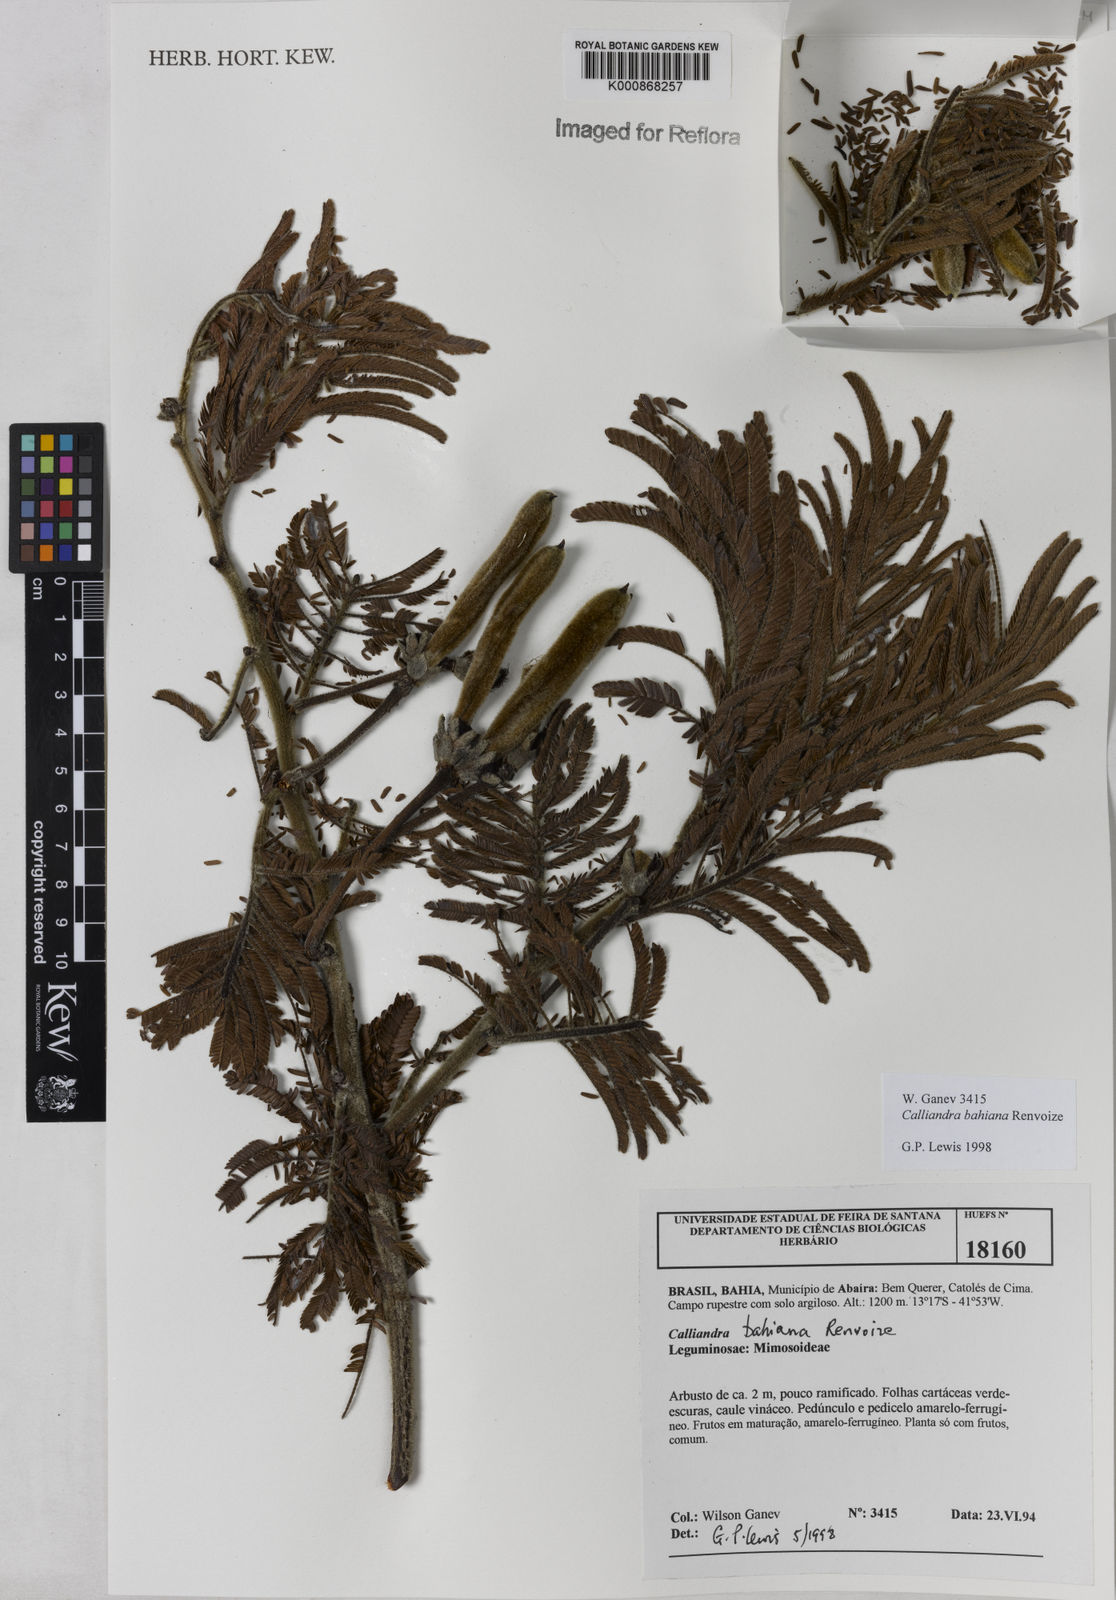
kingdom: Plantae
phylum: Tracheophyta
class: Magnoliopsida
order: Fabales
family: Fabaceae
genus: Calliandra
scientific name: Calliandra bahiana
